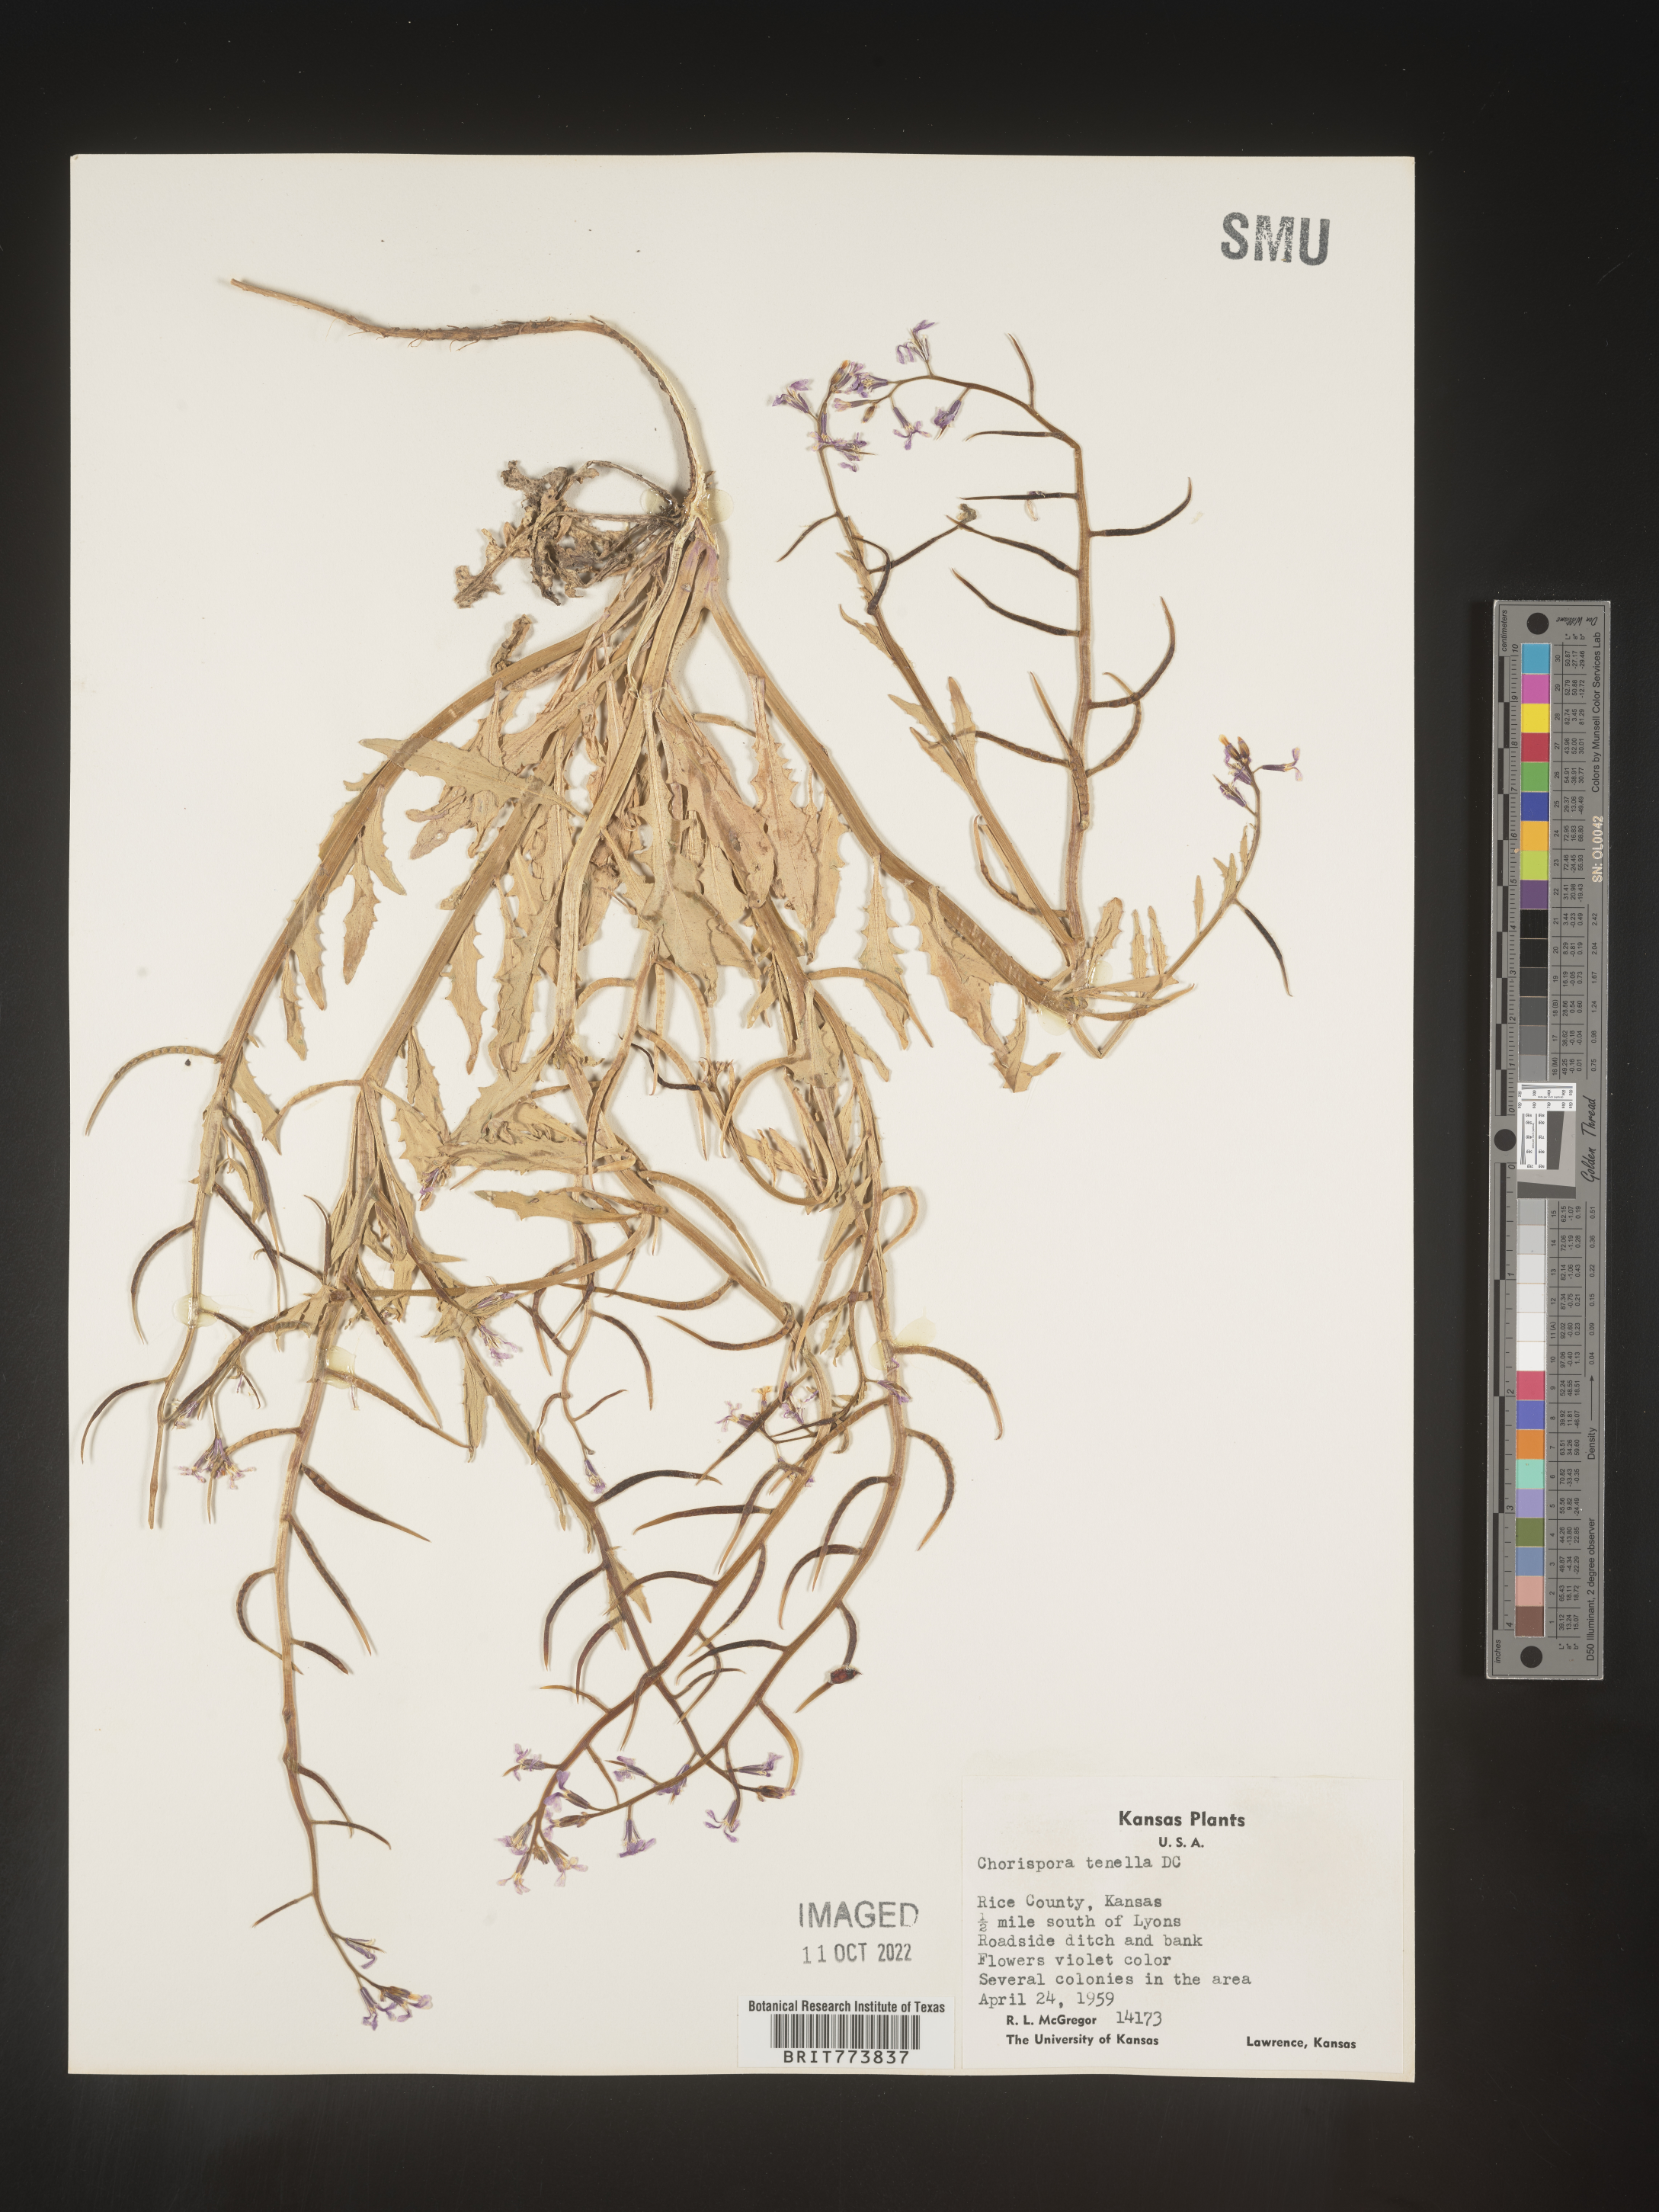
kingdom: Plantae
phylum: Tracheophyta
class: Magnoliopsida
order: Brassicales
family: Brassicaceae
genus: Chorispora
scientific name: Chorispora tenella
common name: Crossflower
